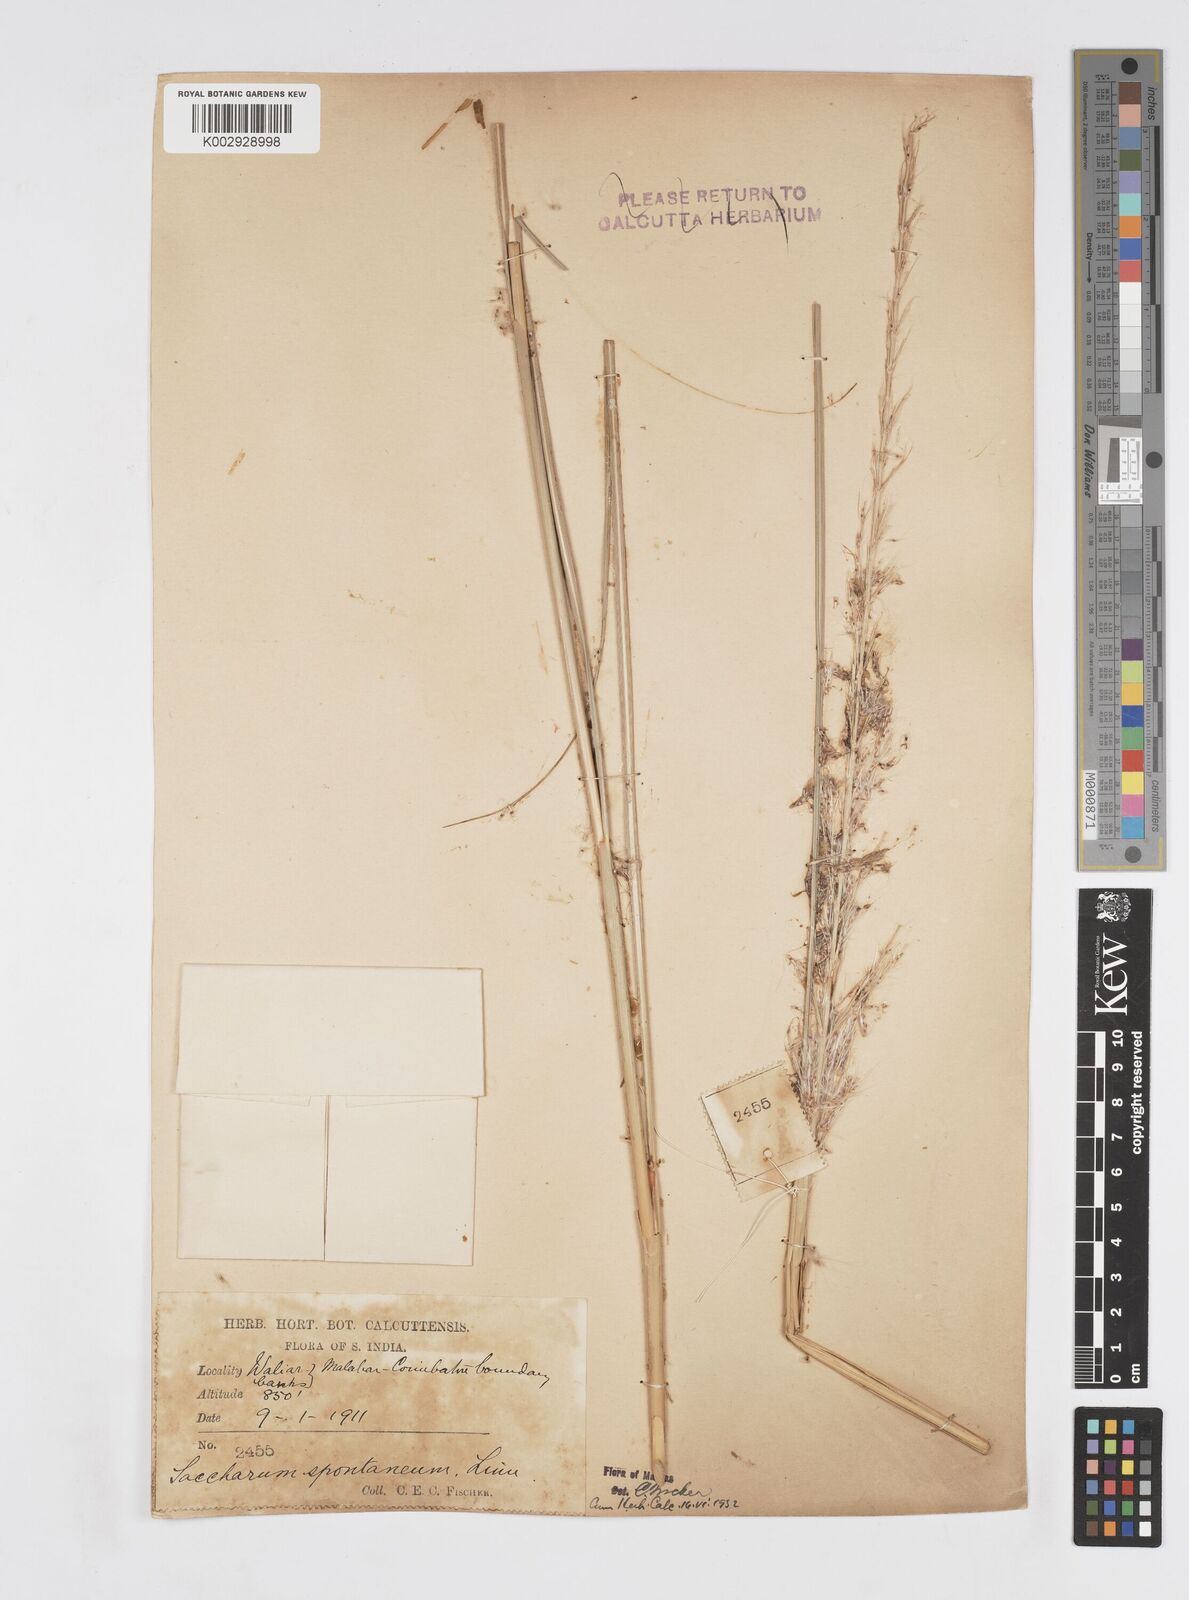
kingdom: Plantae
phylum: Tracheophyta
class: Liliopsida
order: Poales
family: Poaceae
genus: Saccharum
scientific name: Saccharum spontaneum
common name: Wild sugarcane
